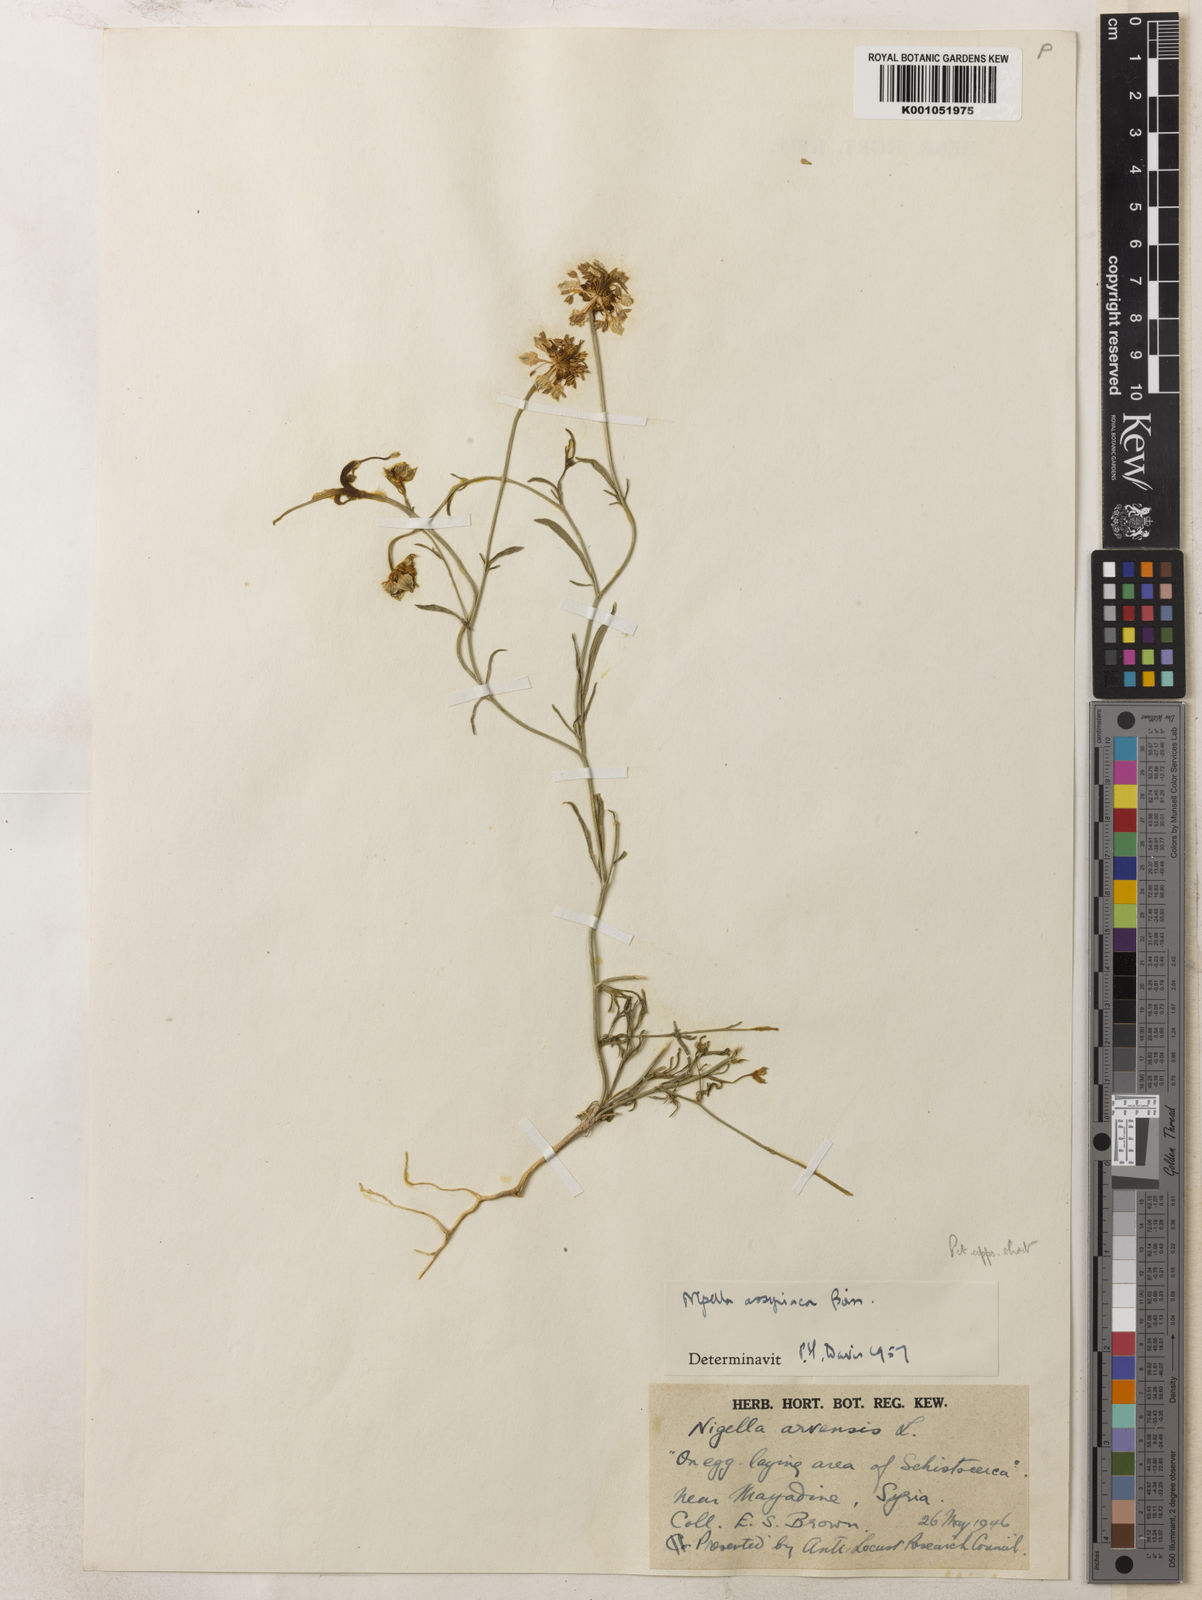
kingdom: Plantae
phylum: Tracheophyta
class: Magnoliopsida
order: Ranunculales
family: Ranunculaceae
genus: Nigella
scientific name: Nigella deserti
